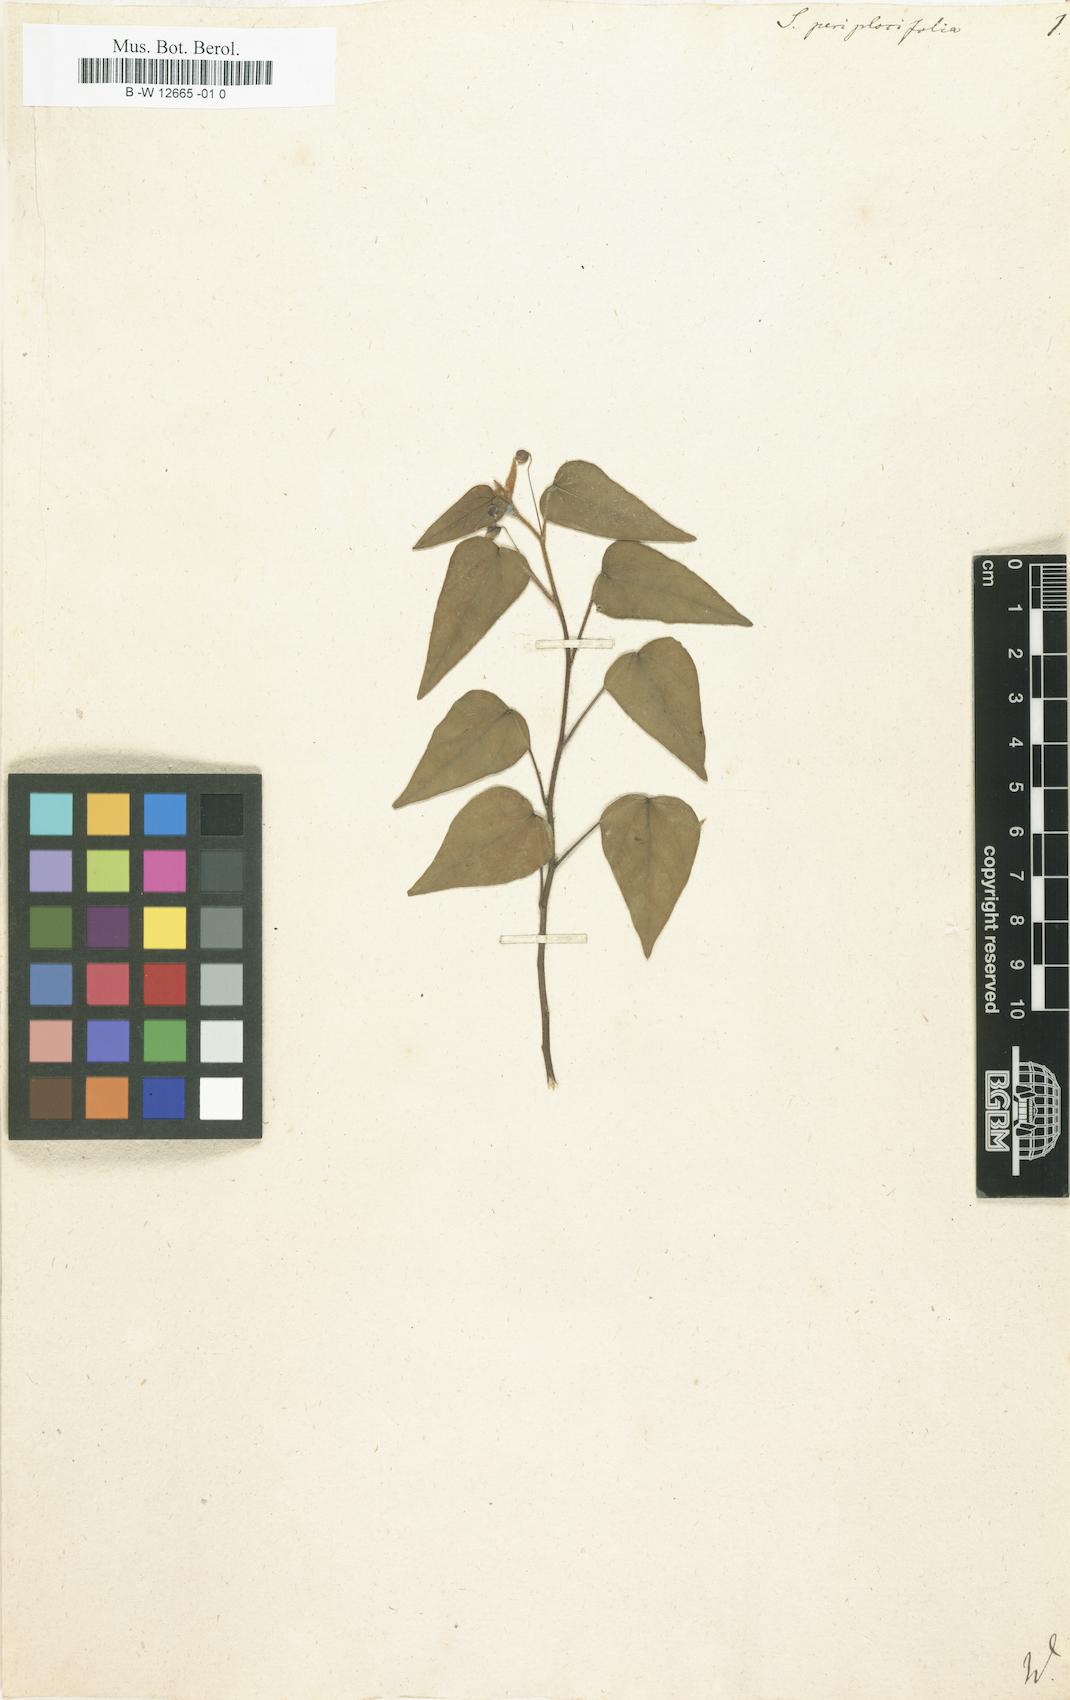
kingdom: Plantae
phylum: Tracheophyta
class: Magnoliopsida
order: Malvales
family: Malvaceae
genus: Wissadula
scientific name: Wissadula periplocifolia
